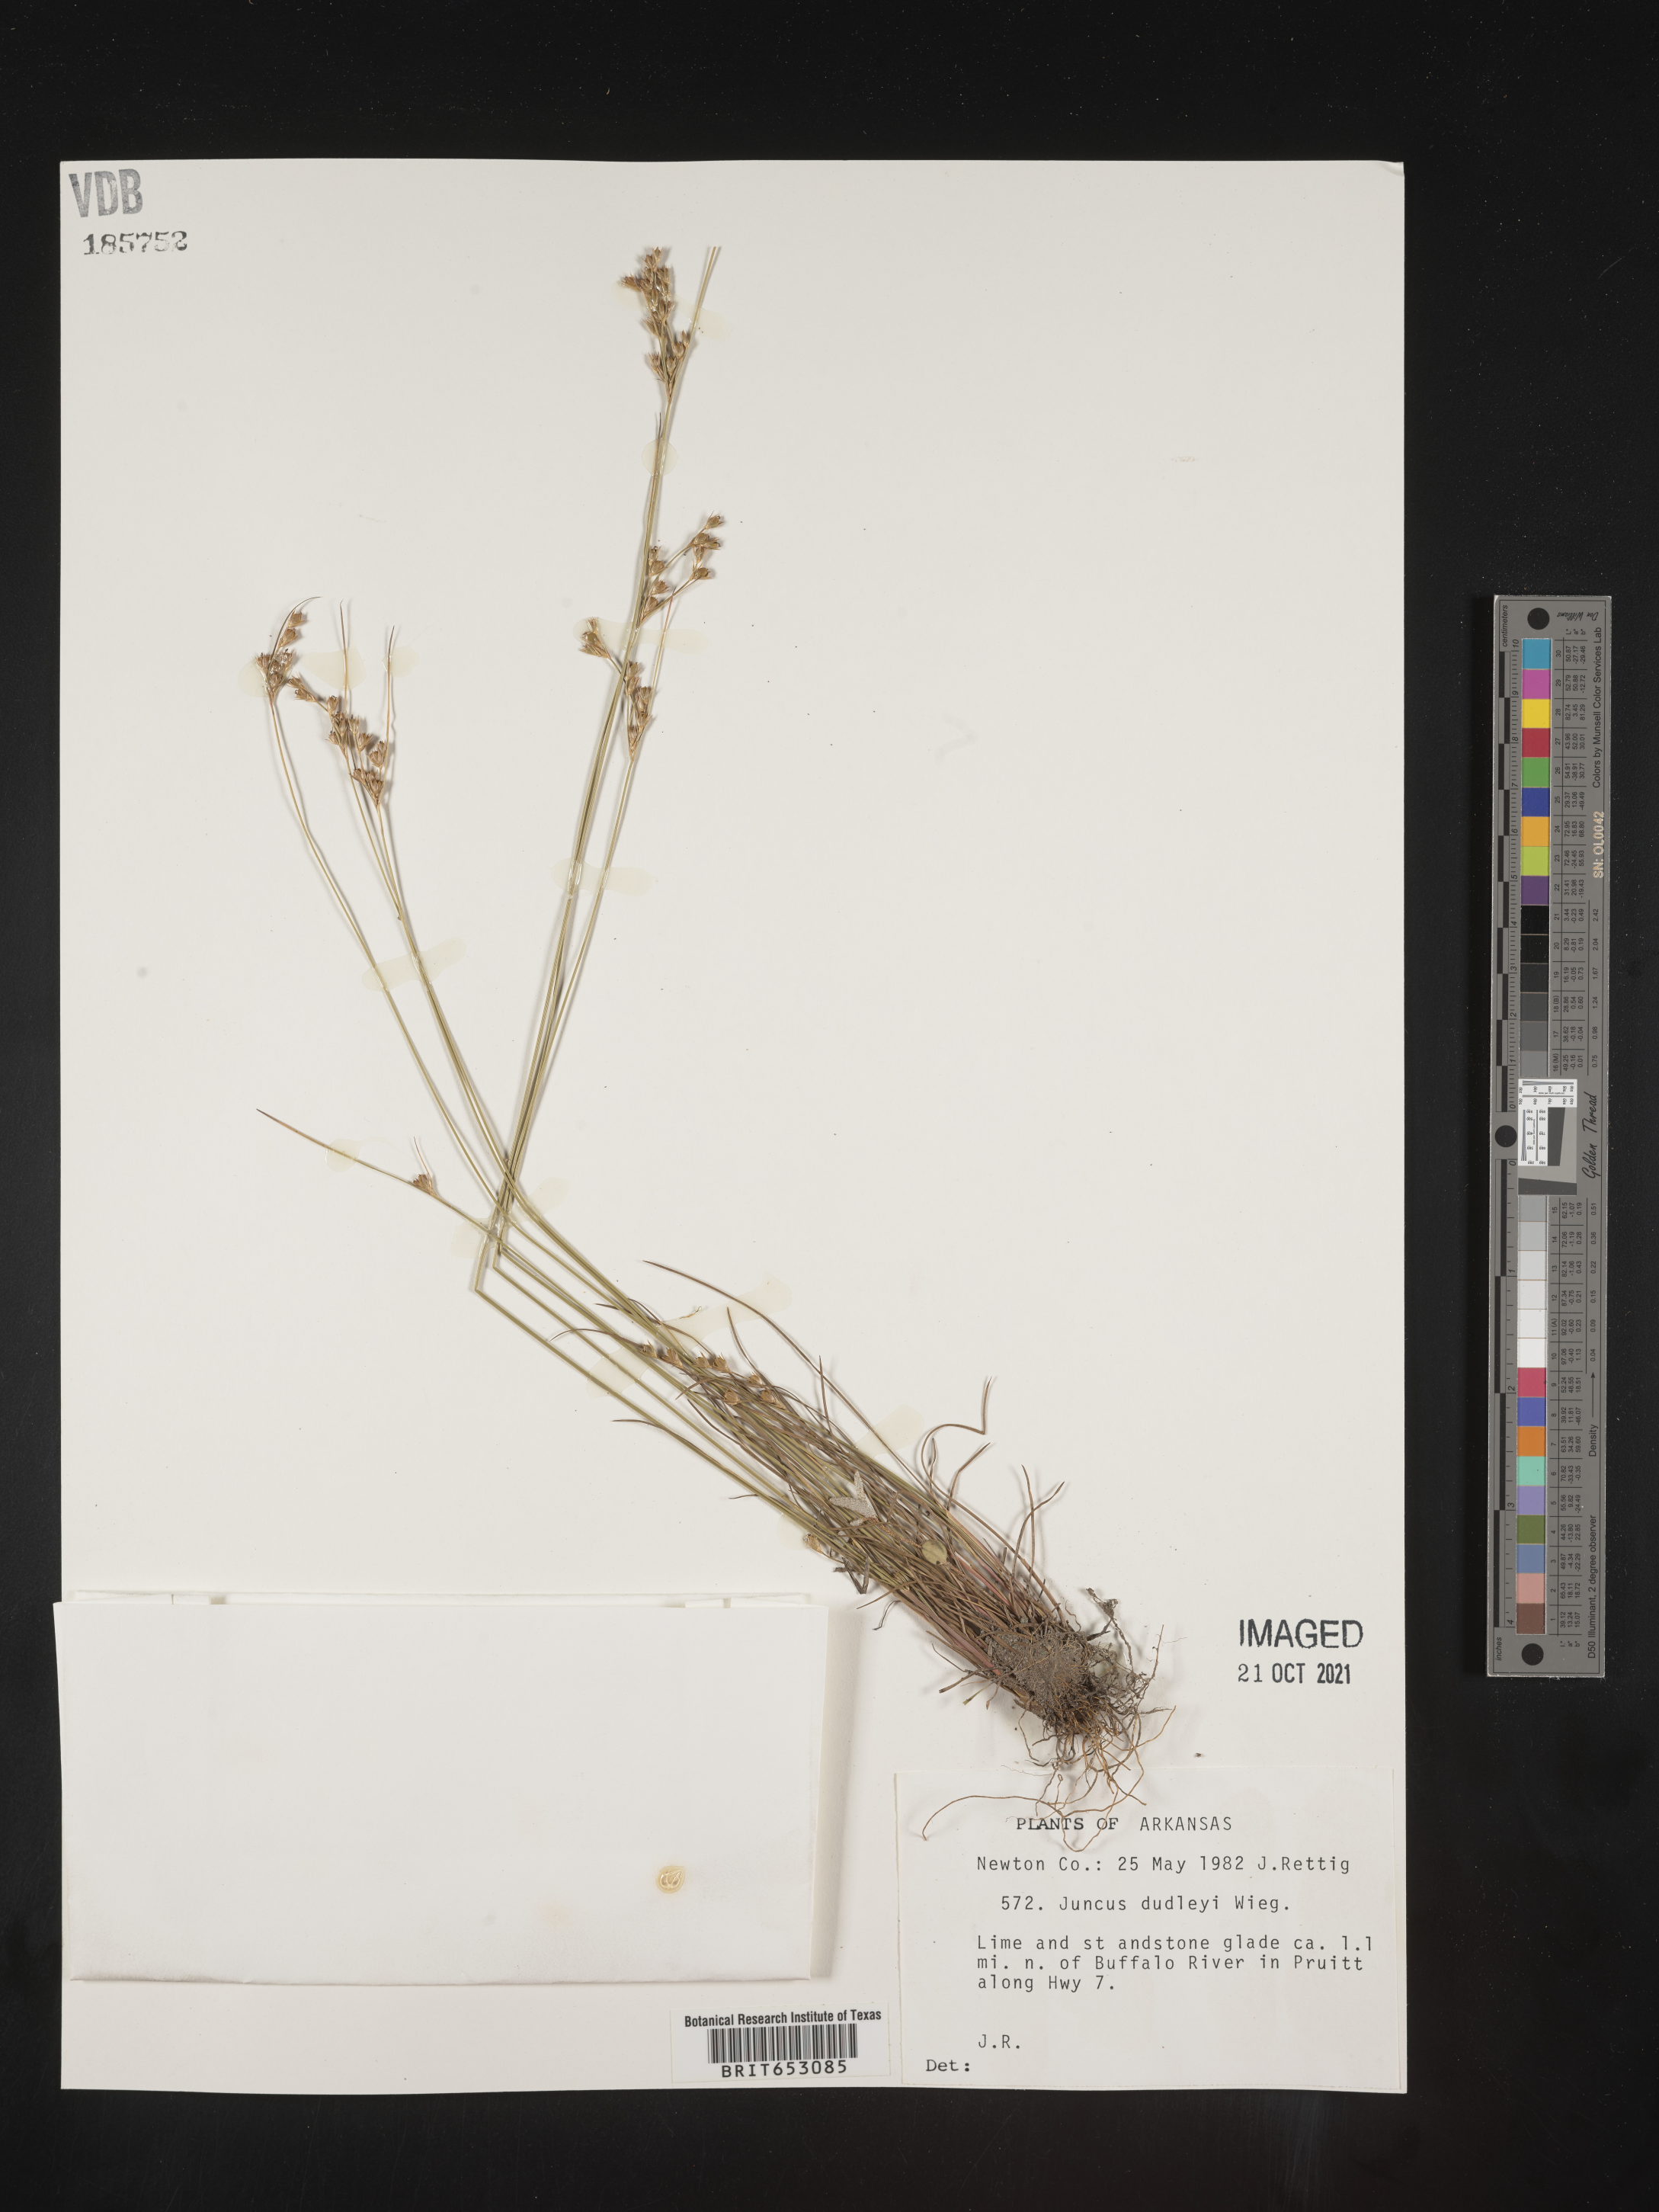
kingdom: Plantae
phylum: Tracheophyta
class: Liliopsida
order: Poales
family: Juncaceae
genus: Juncus
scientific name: Juncus dudleyi
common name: Dudley's rush
